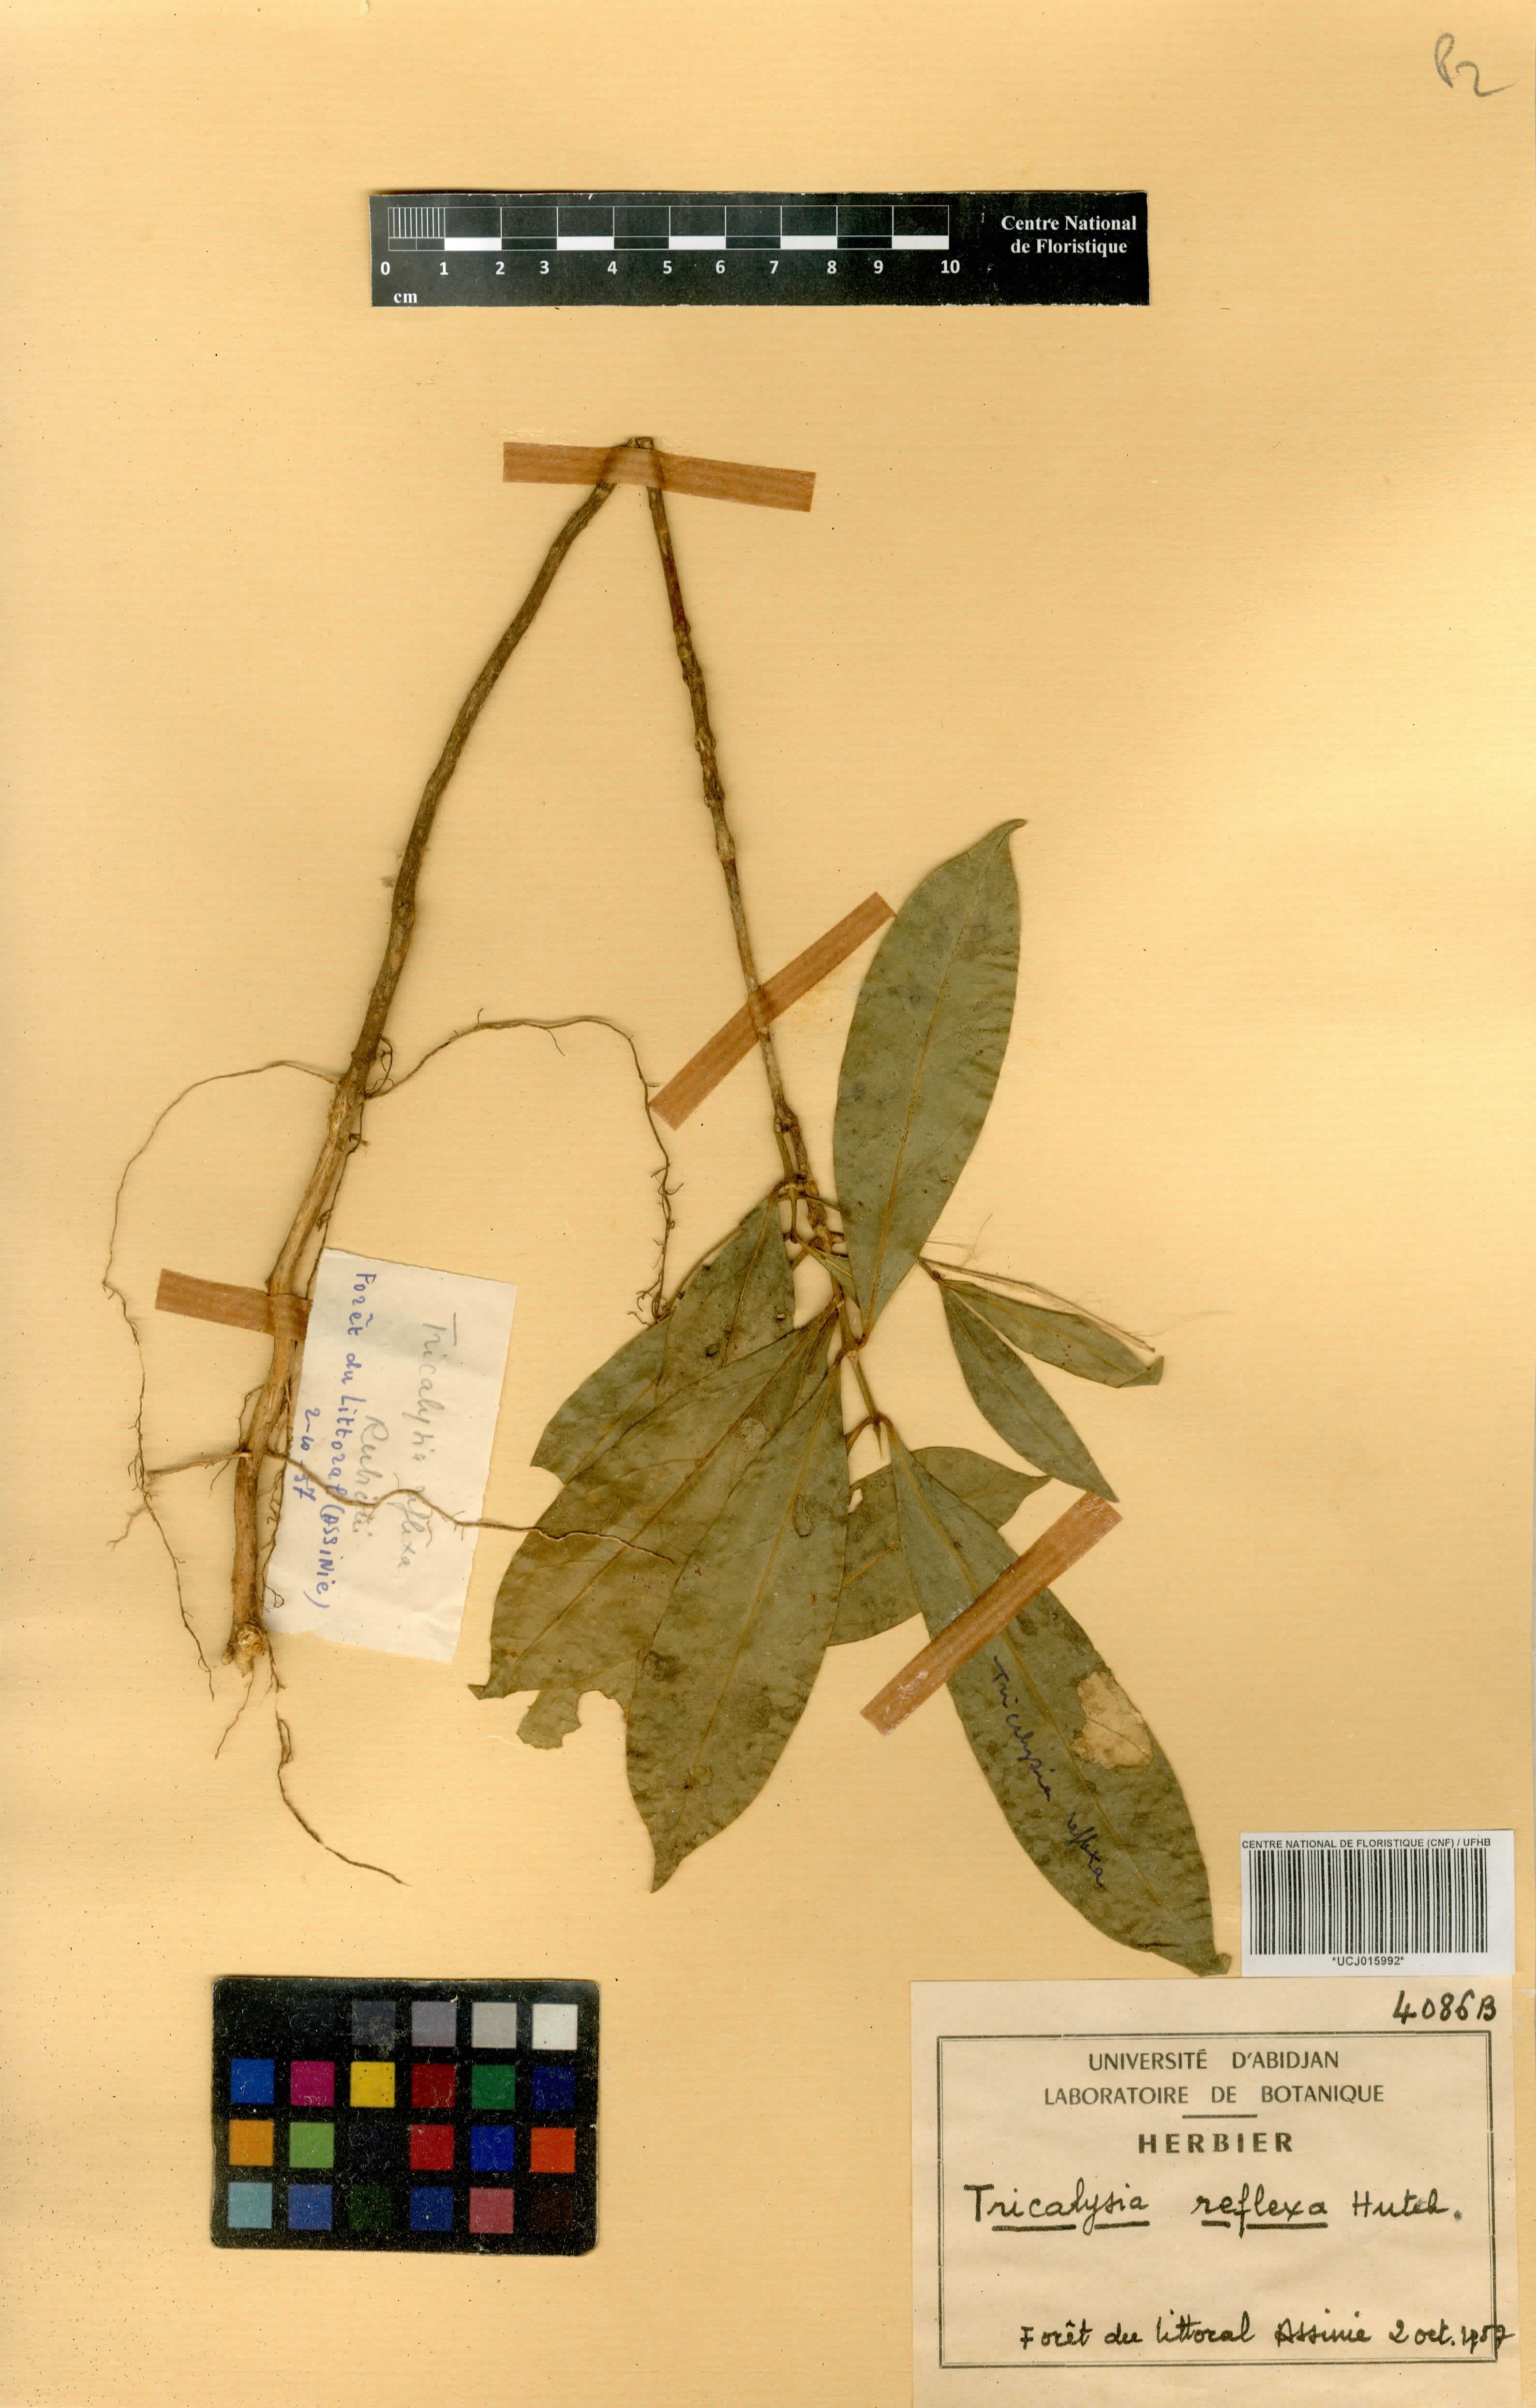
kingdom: Plantae
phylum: Tracheophyta
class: Magnoliopsida
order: Gentianales
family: Rubiaceae
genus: Empogona
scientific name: Empogona reflexa
